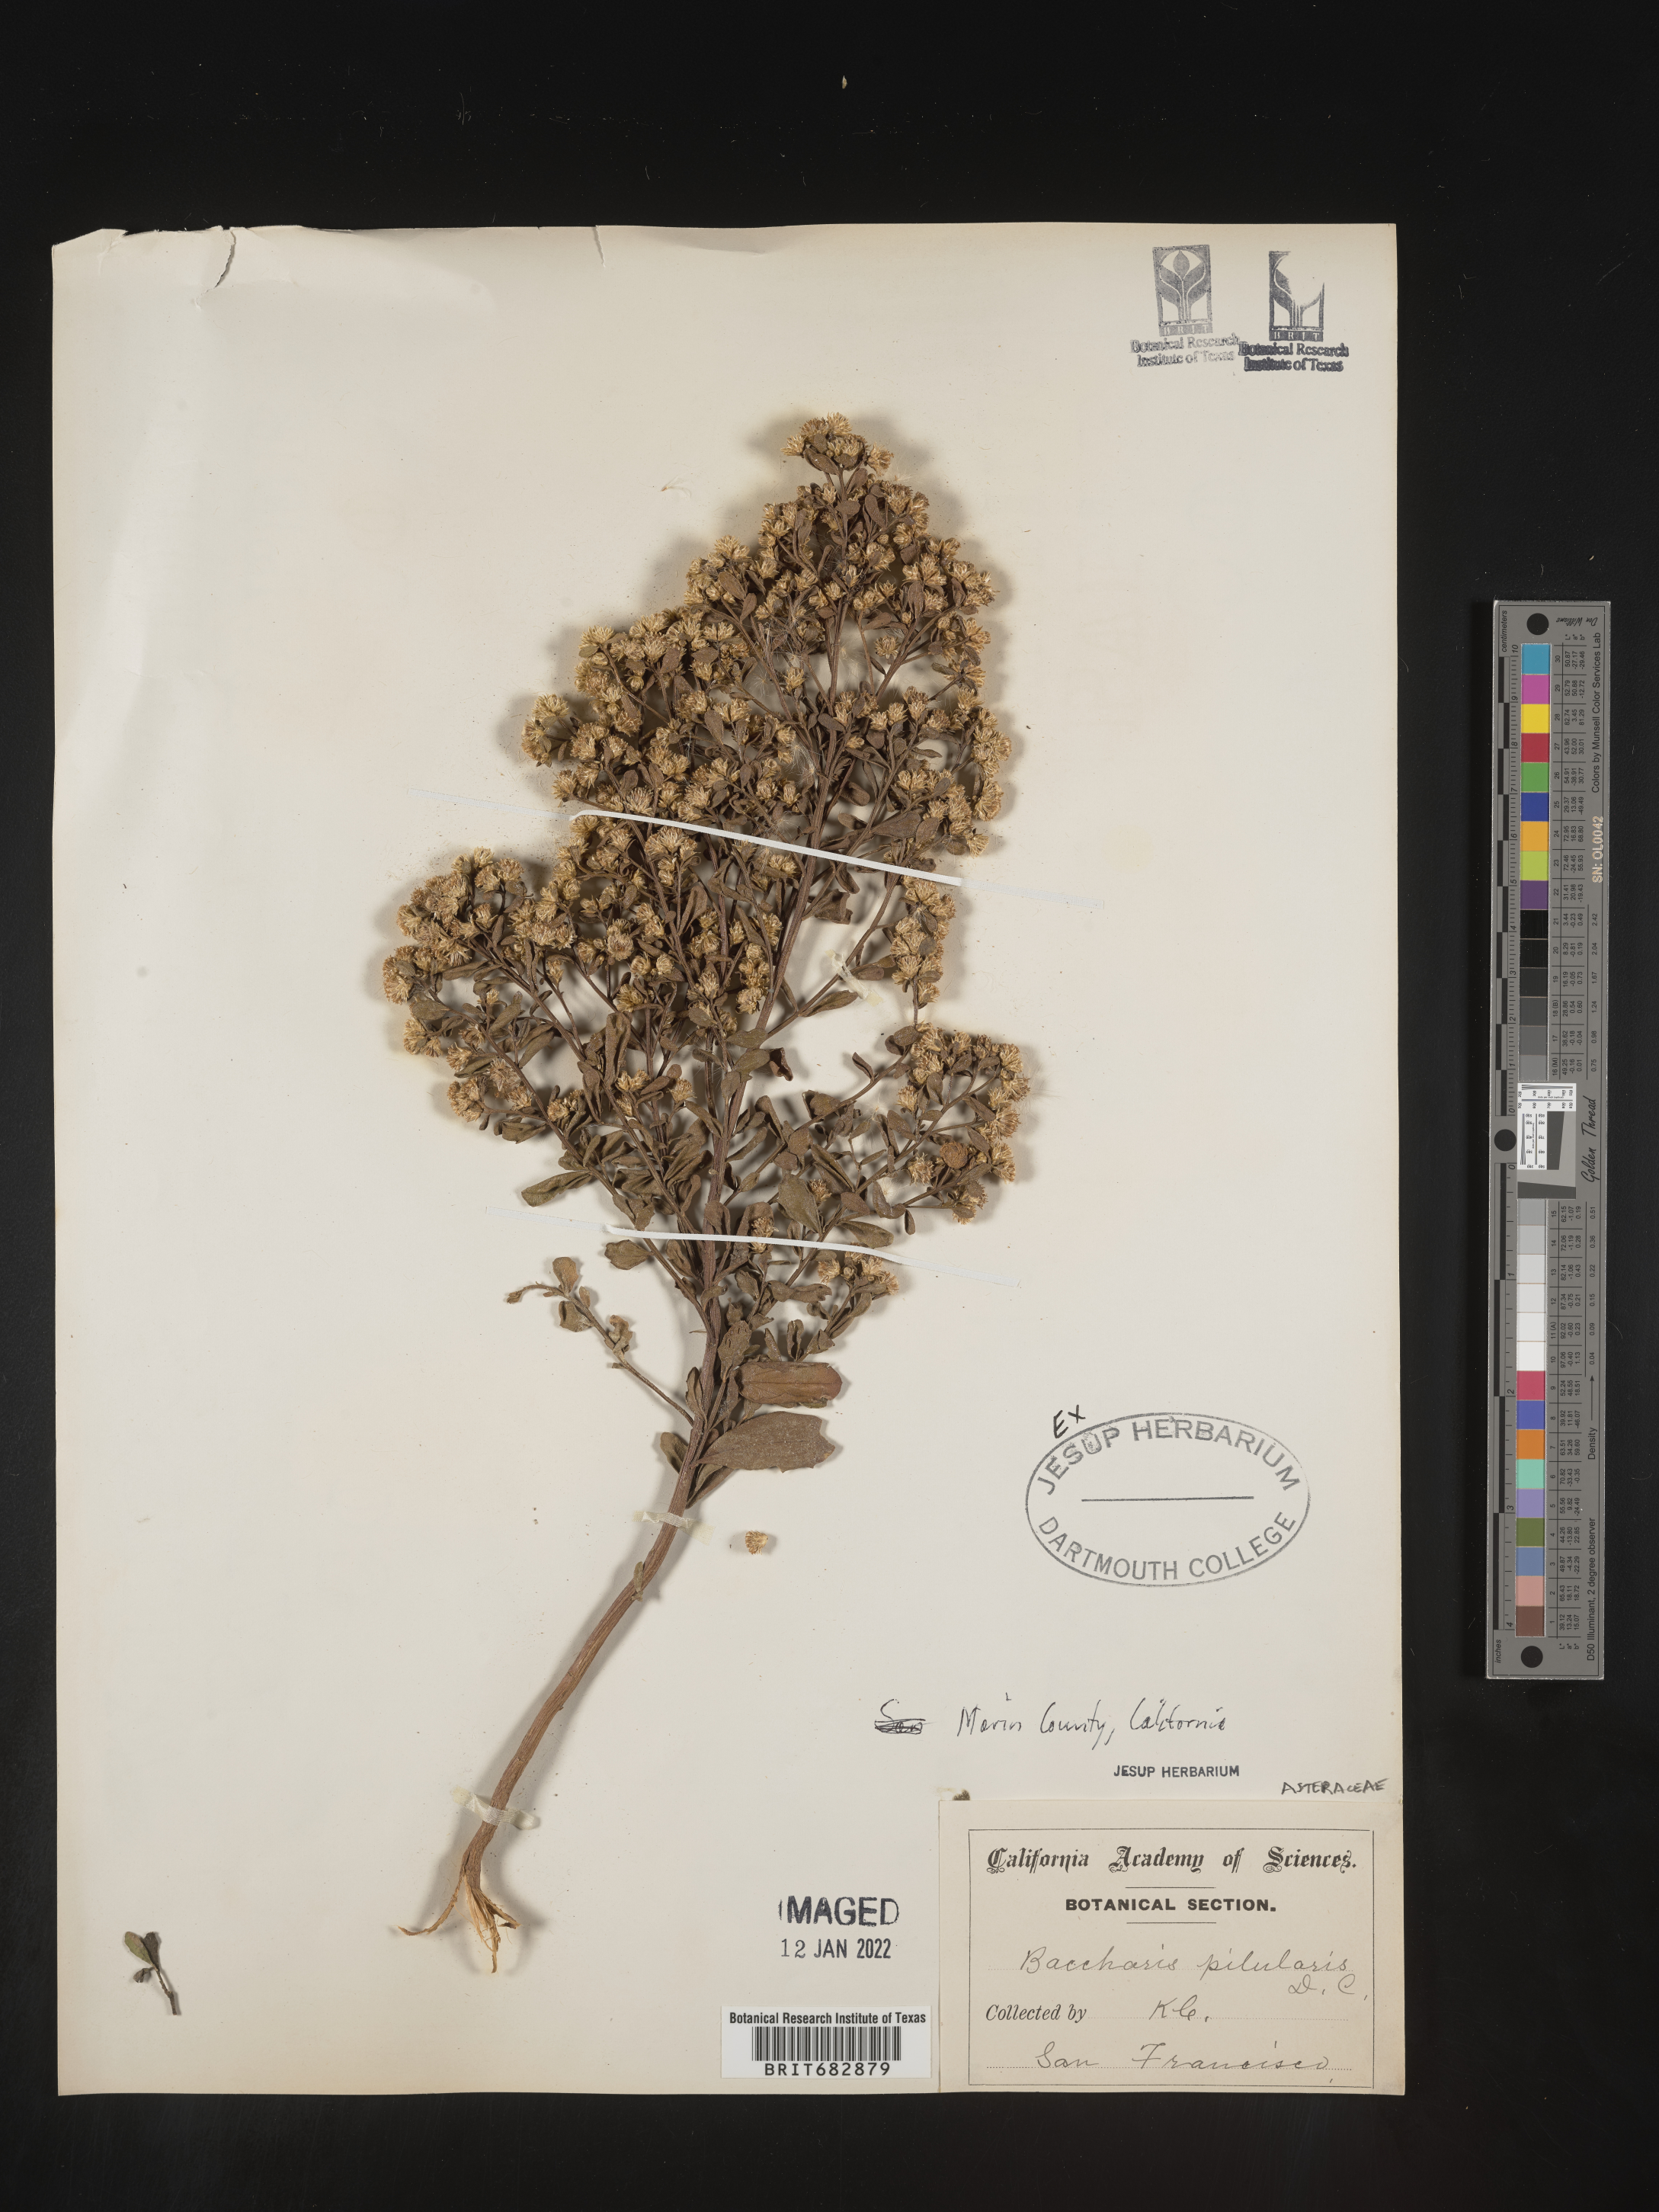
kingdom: Plantae
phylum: Tracheophyta
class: Magnoliopsida
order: Asterales
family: Asteraceae
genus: Baccharis
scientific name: Baccharis pilularis
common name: Coyotebrush
